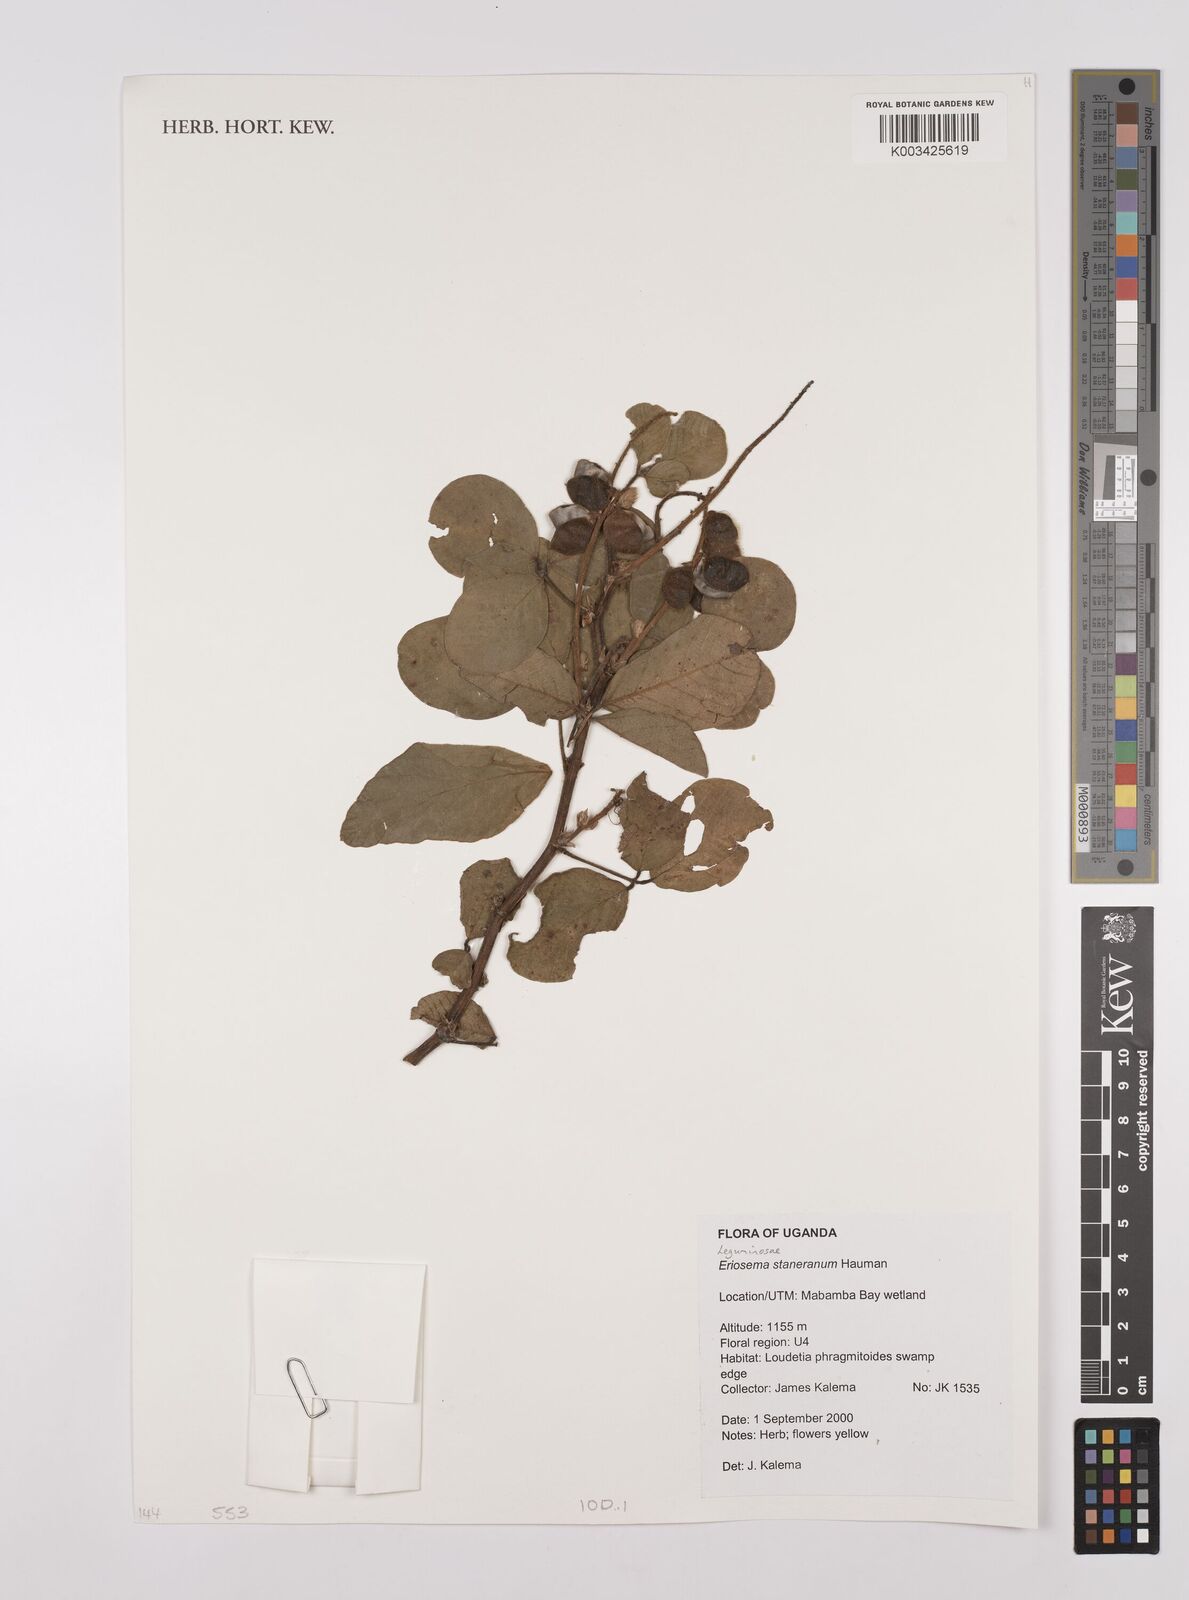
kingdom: Plantae
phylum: Tracheophyta
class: Magnoliopsida
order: Fabales
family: Fabaceae
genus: Eriosema
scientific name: Eriosema angolense
